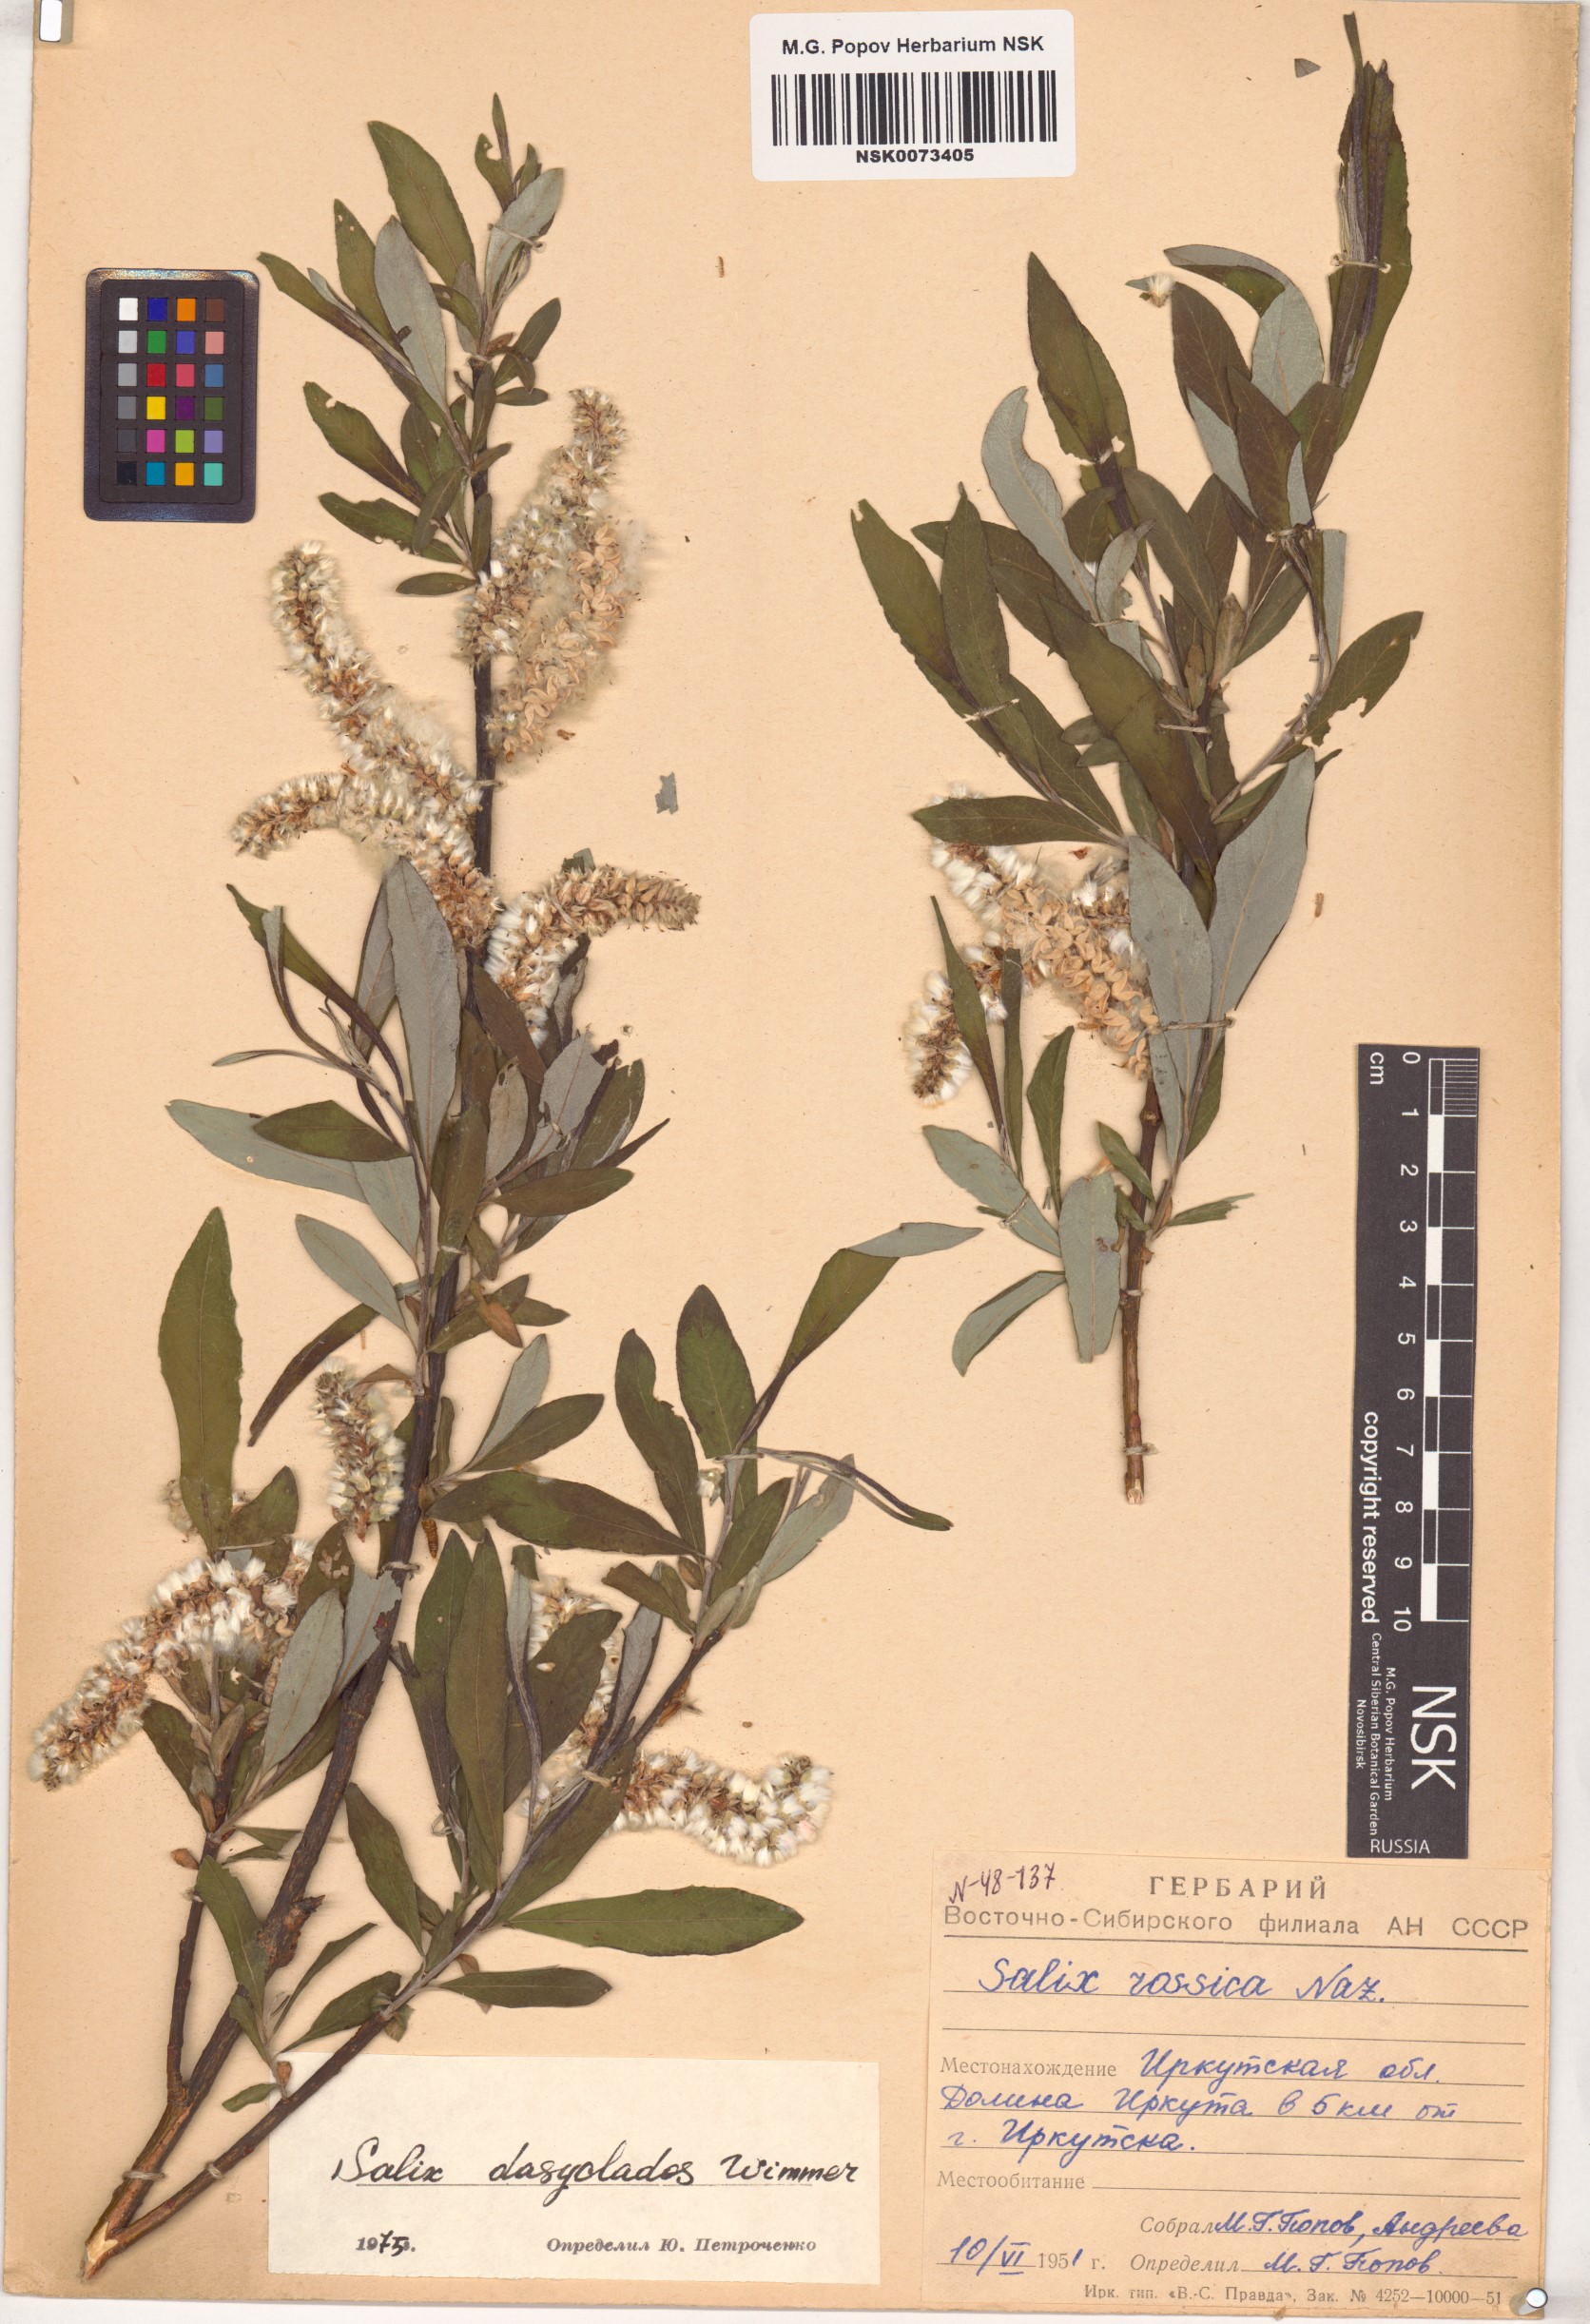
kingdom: Plantae
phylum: Tracheophyta
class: Magnoliopsida
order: Malpighiales
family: Salicaceae
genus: Salix
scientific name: Salix gmelinii
